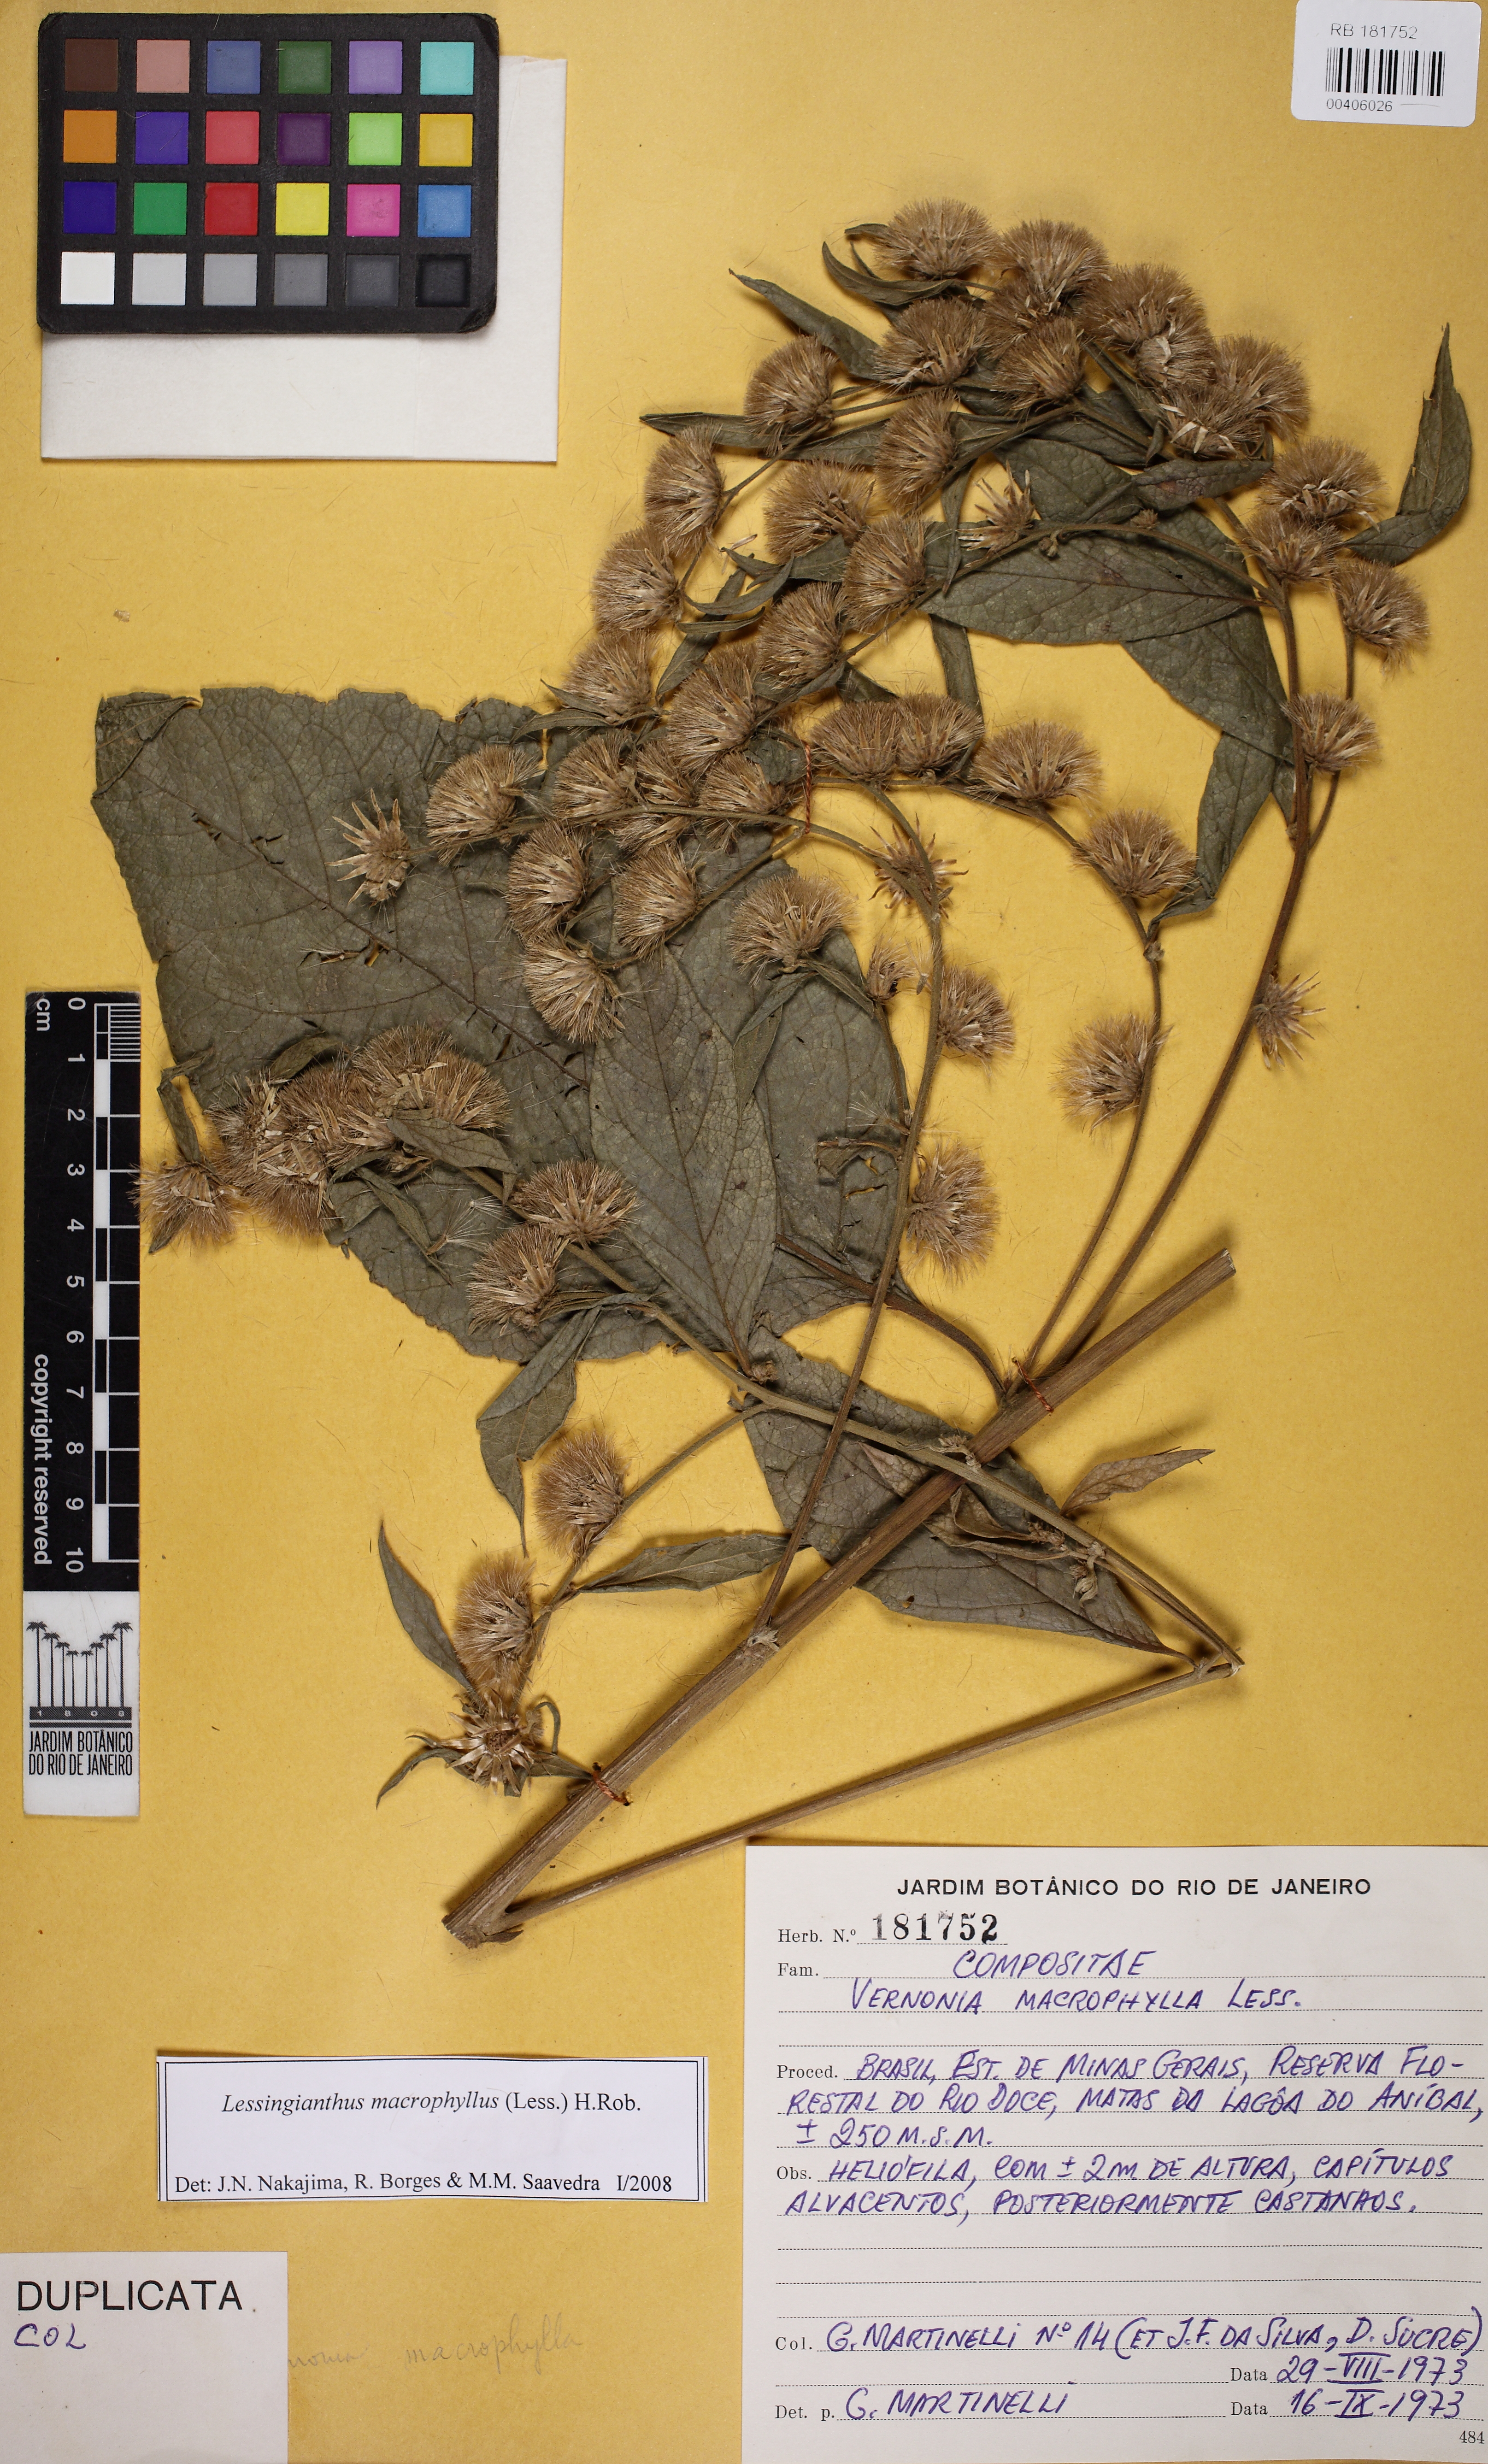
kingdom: Plantae
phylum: Tracheophyta
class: Magnoliopsida
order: Asterales
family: Asteraceae
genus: Lessingianthus
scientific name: Lessingianthus macrophyllus
